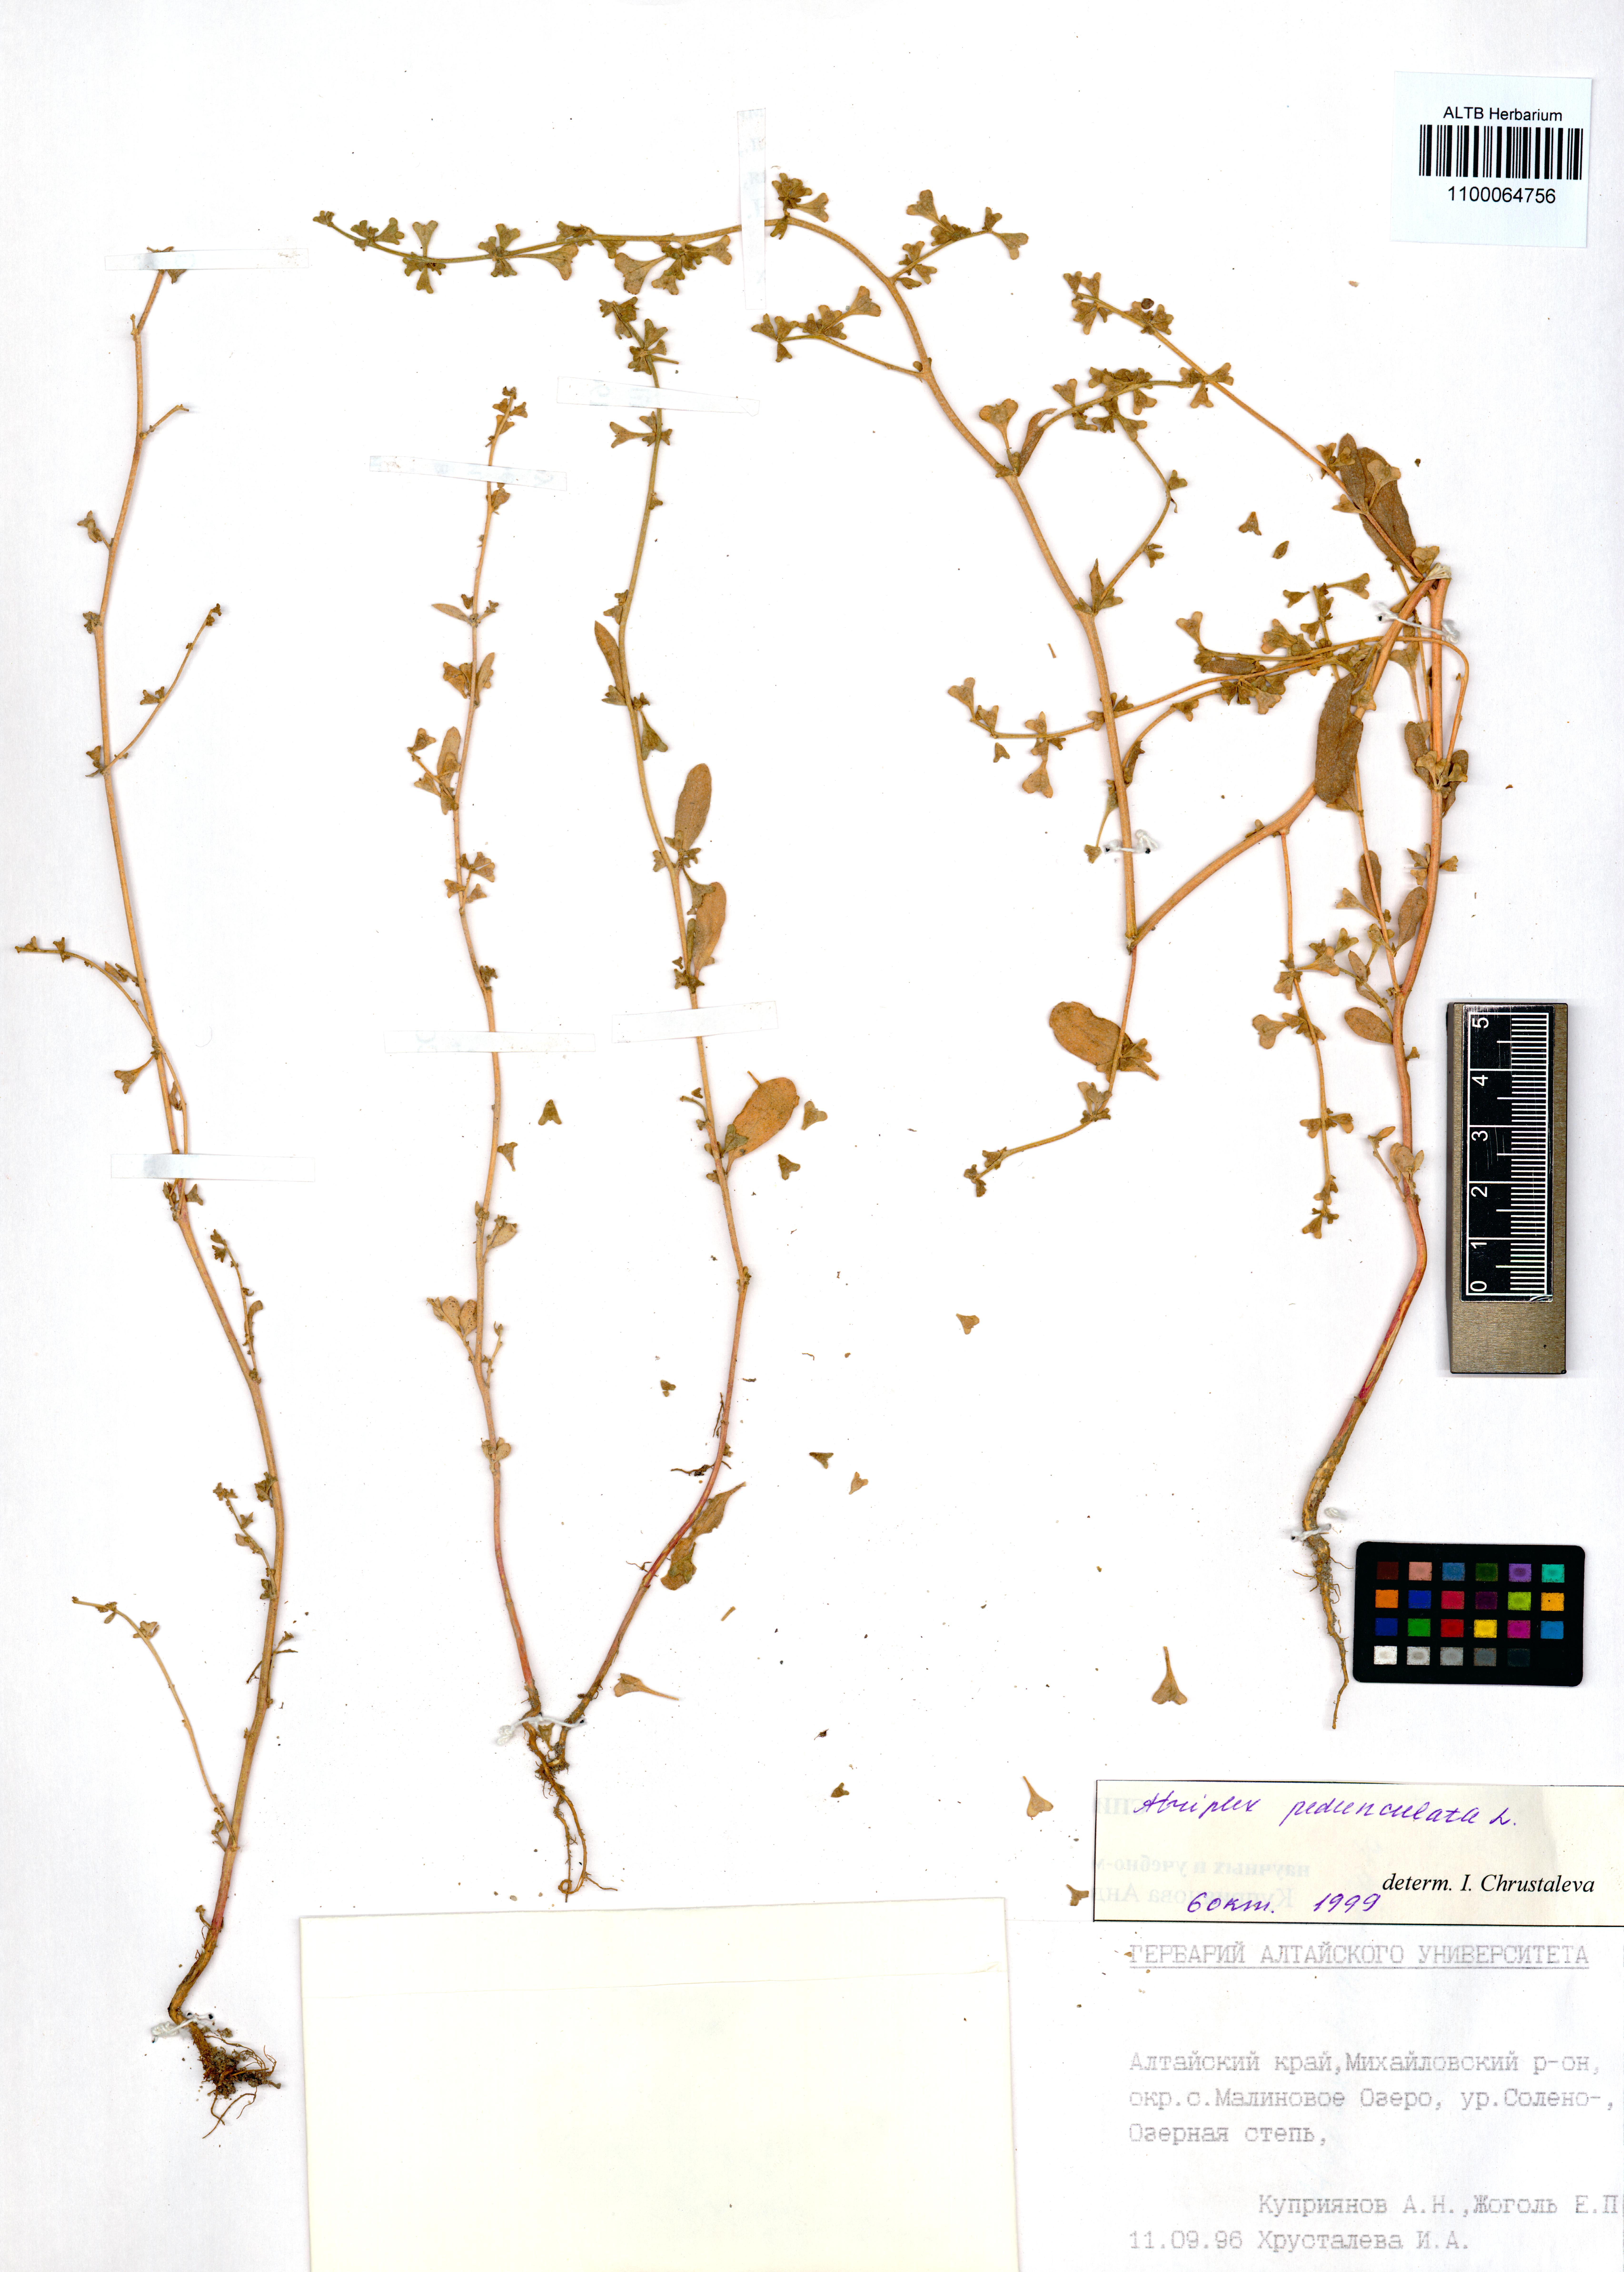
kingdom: Plantae
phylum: Tracheophyta
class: Magnoliopsida
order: Caryophyllales
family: Amaranthaceae
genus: Halimione
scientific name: Halimione pedunculata
